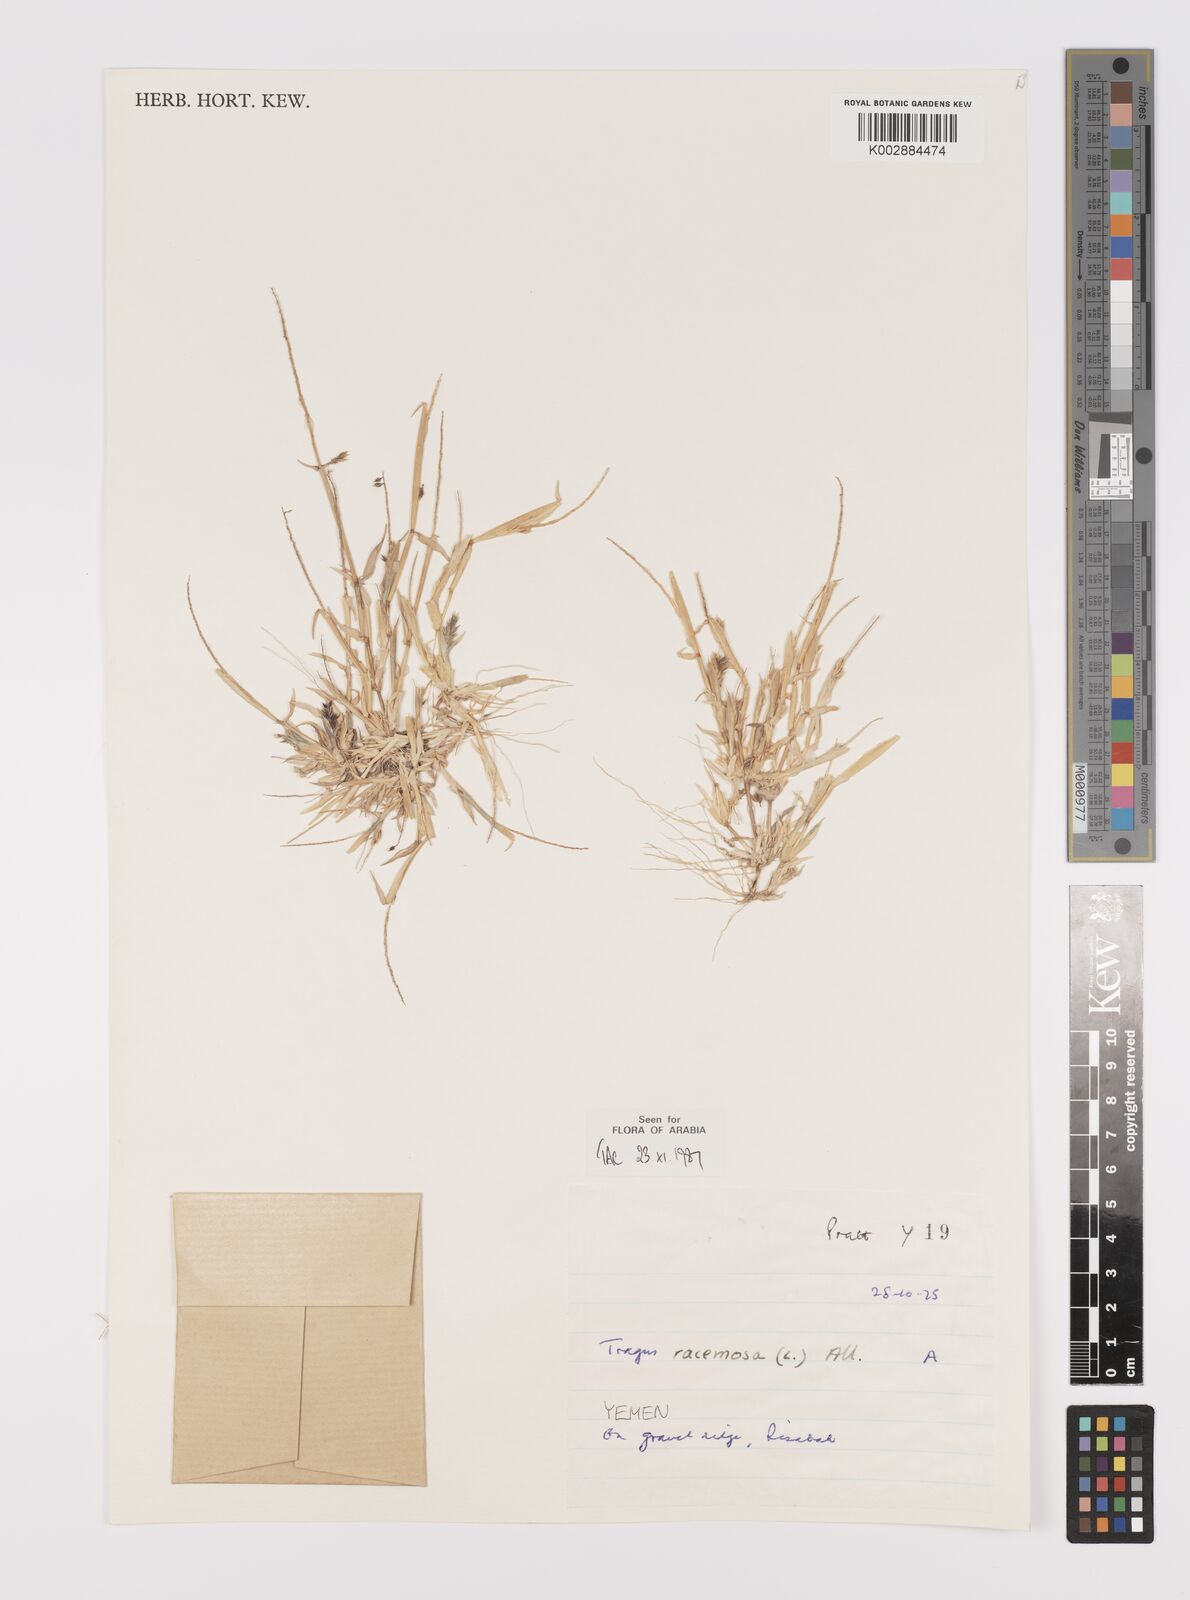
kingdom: Plantae
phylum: Tracheophyta
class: Liliopsida
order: Poales
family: Poaceae
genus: Tragus
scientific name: Tragus racemosus
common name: European bur-grass
